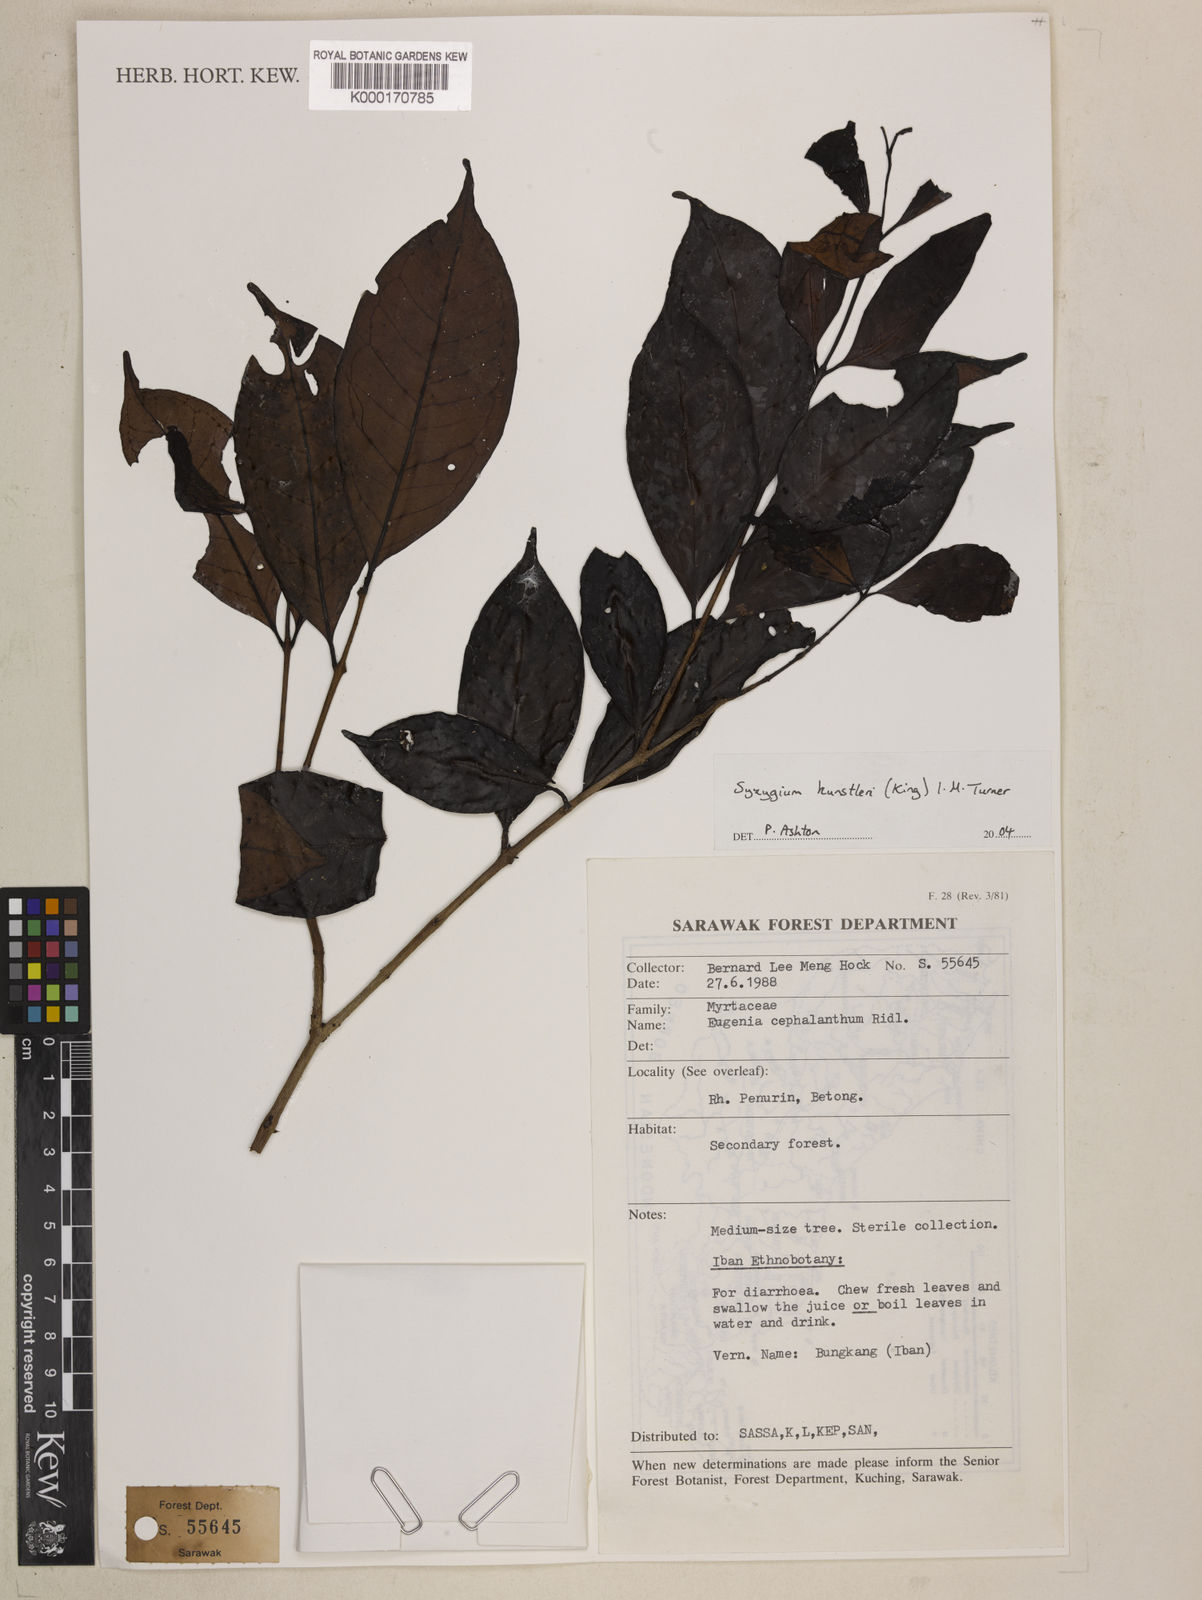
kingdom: Plantae
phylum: Tracheophyta
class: Magnoliopsida
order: Myrtales
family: Myrtaceae
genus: Syzygium
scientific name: Syzygium
